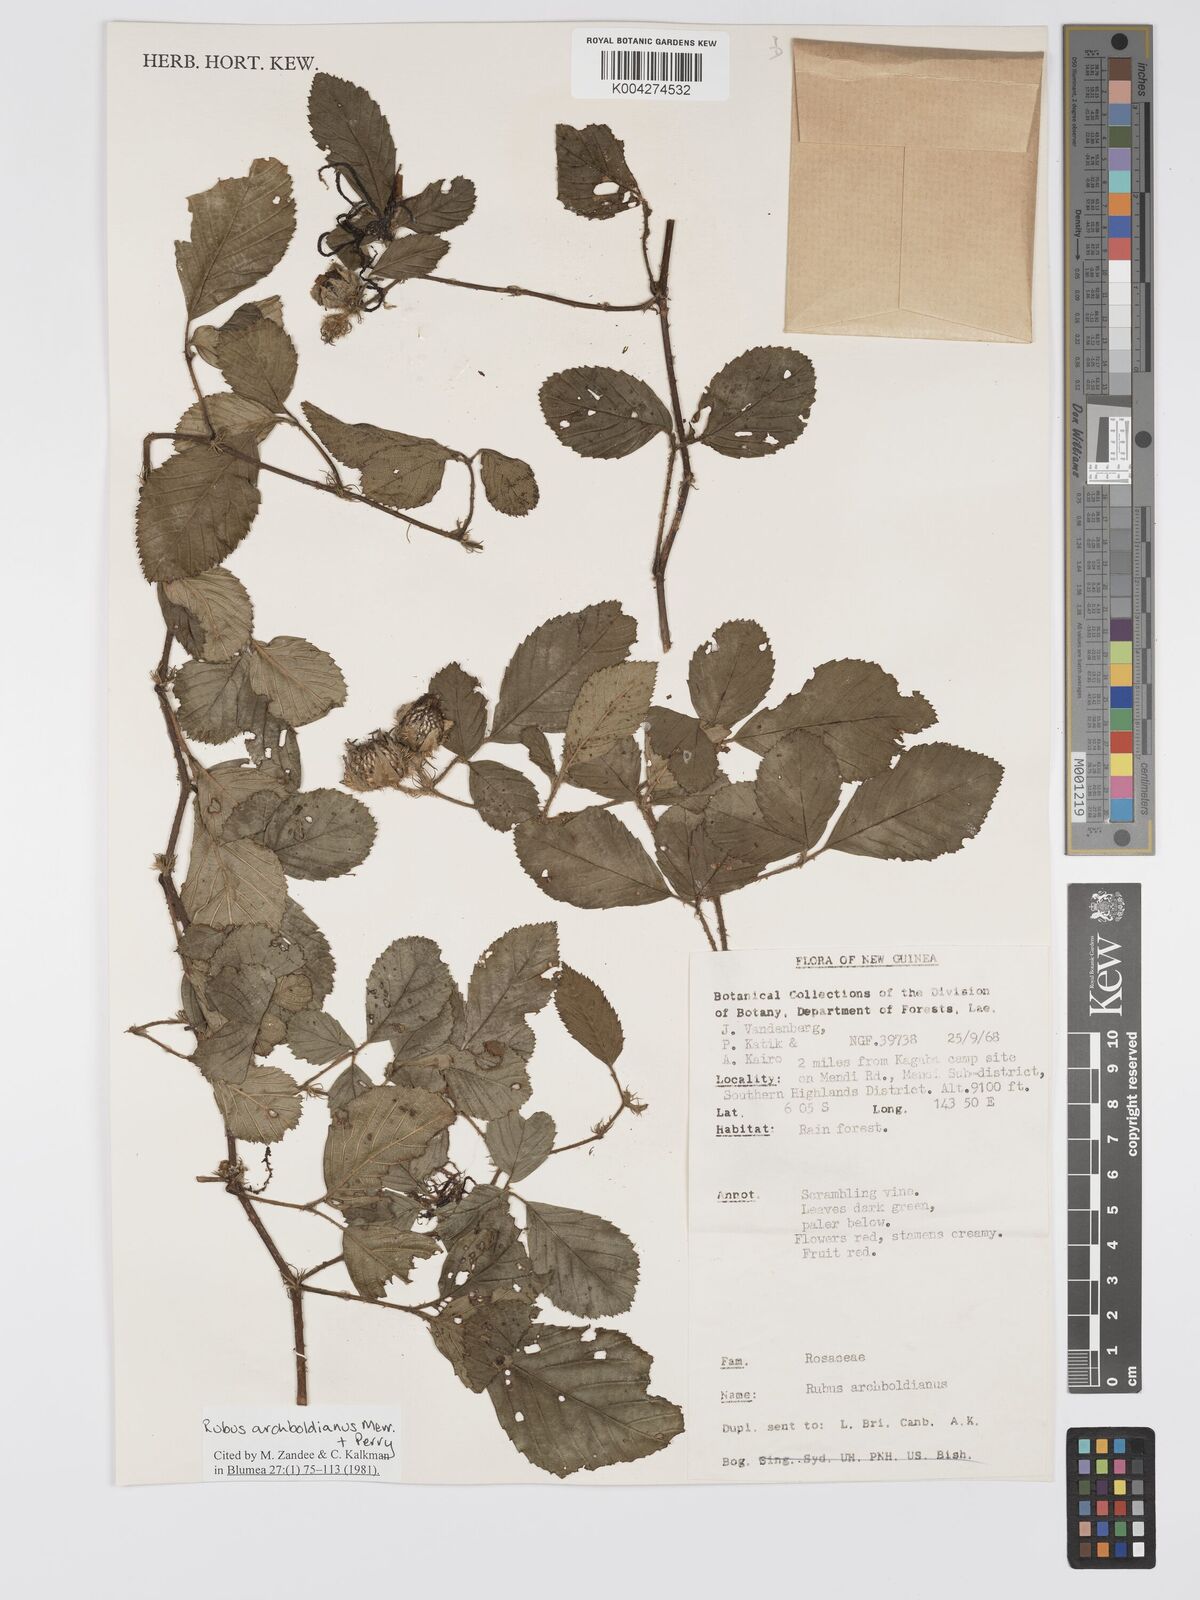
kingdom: Plantae
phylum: Tracheophyta
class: Magnoliopsida
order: Rosales
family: Rosaceae
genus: Rubus
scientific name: Rubus archboldianus
